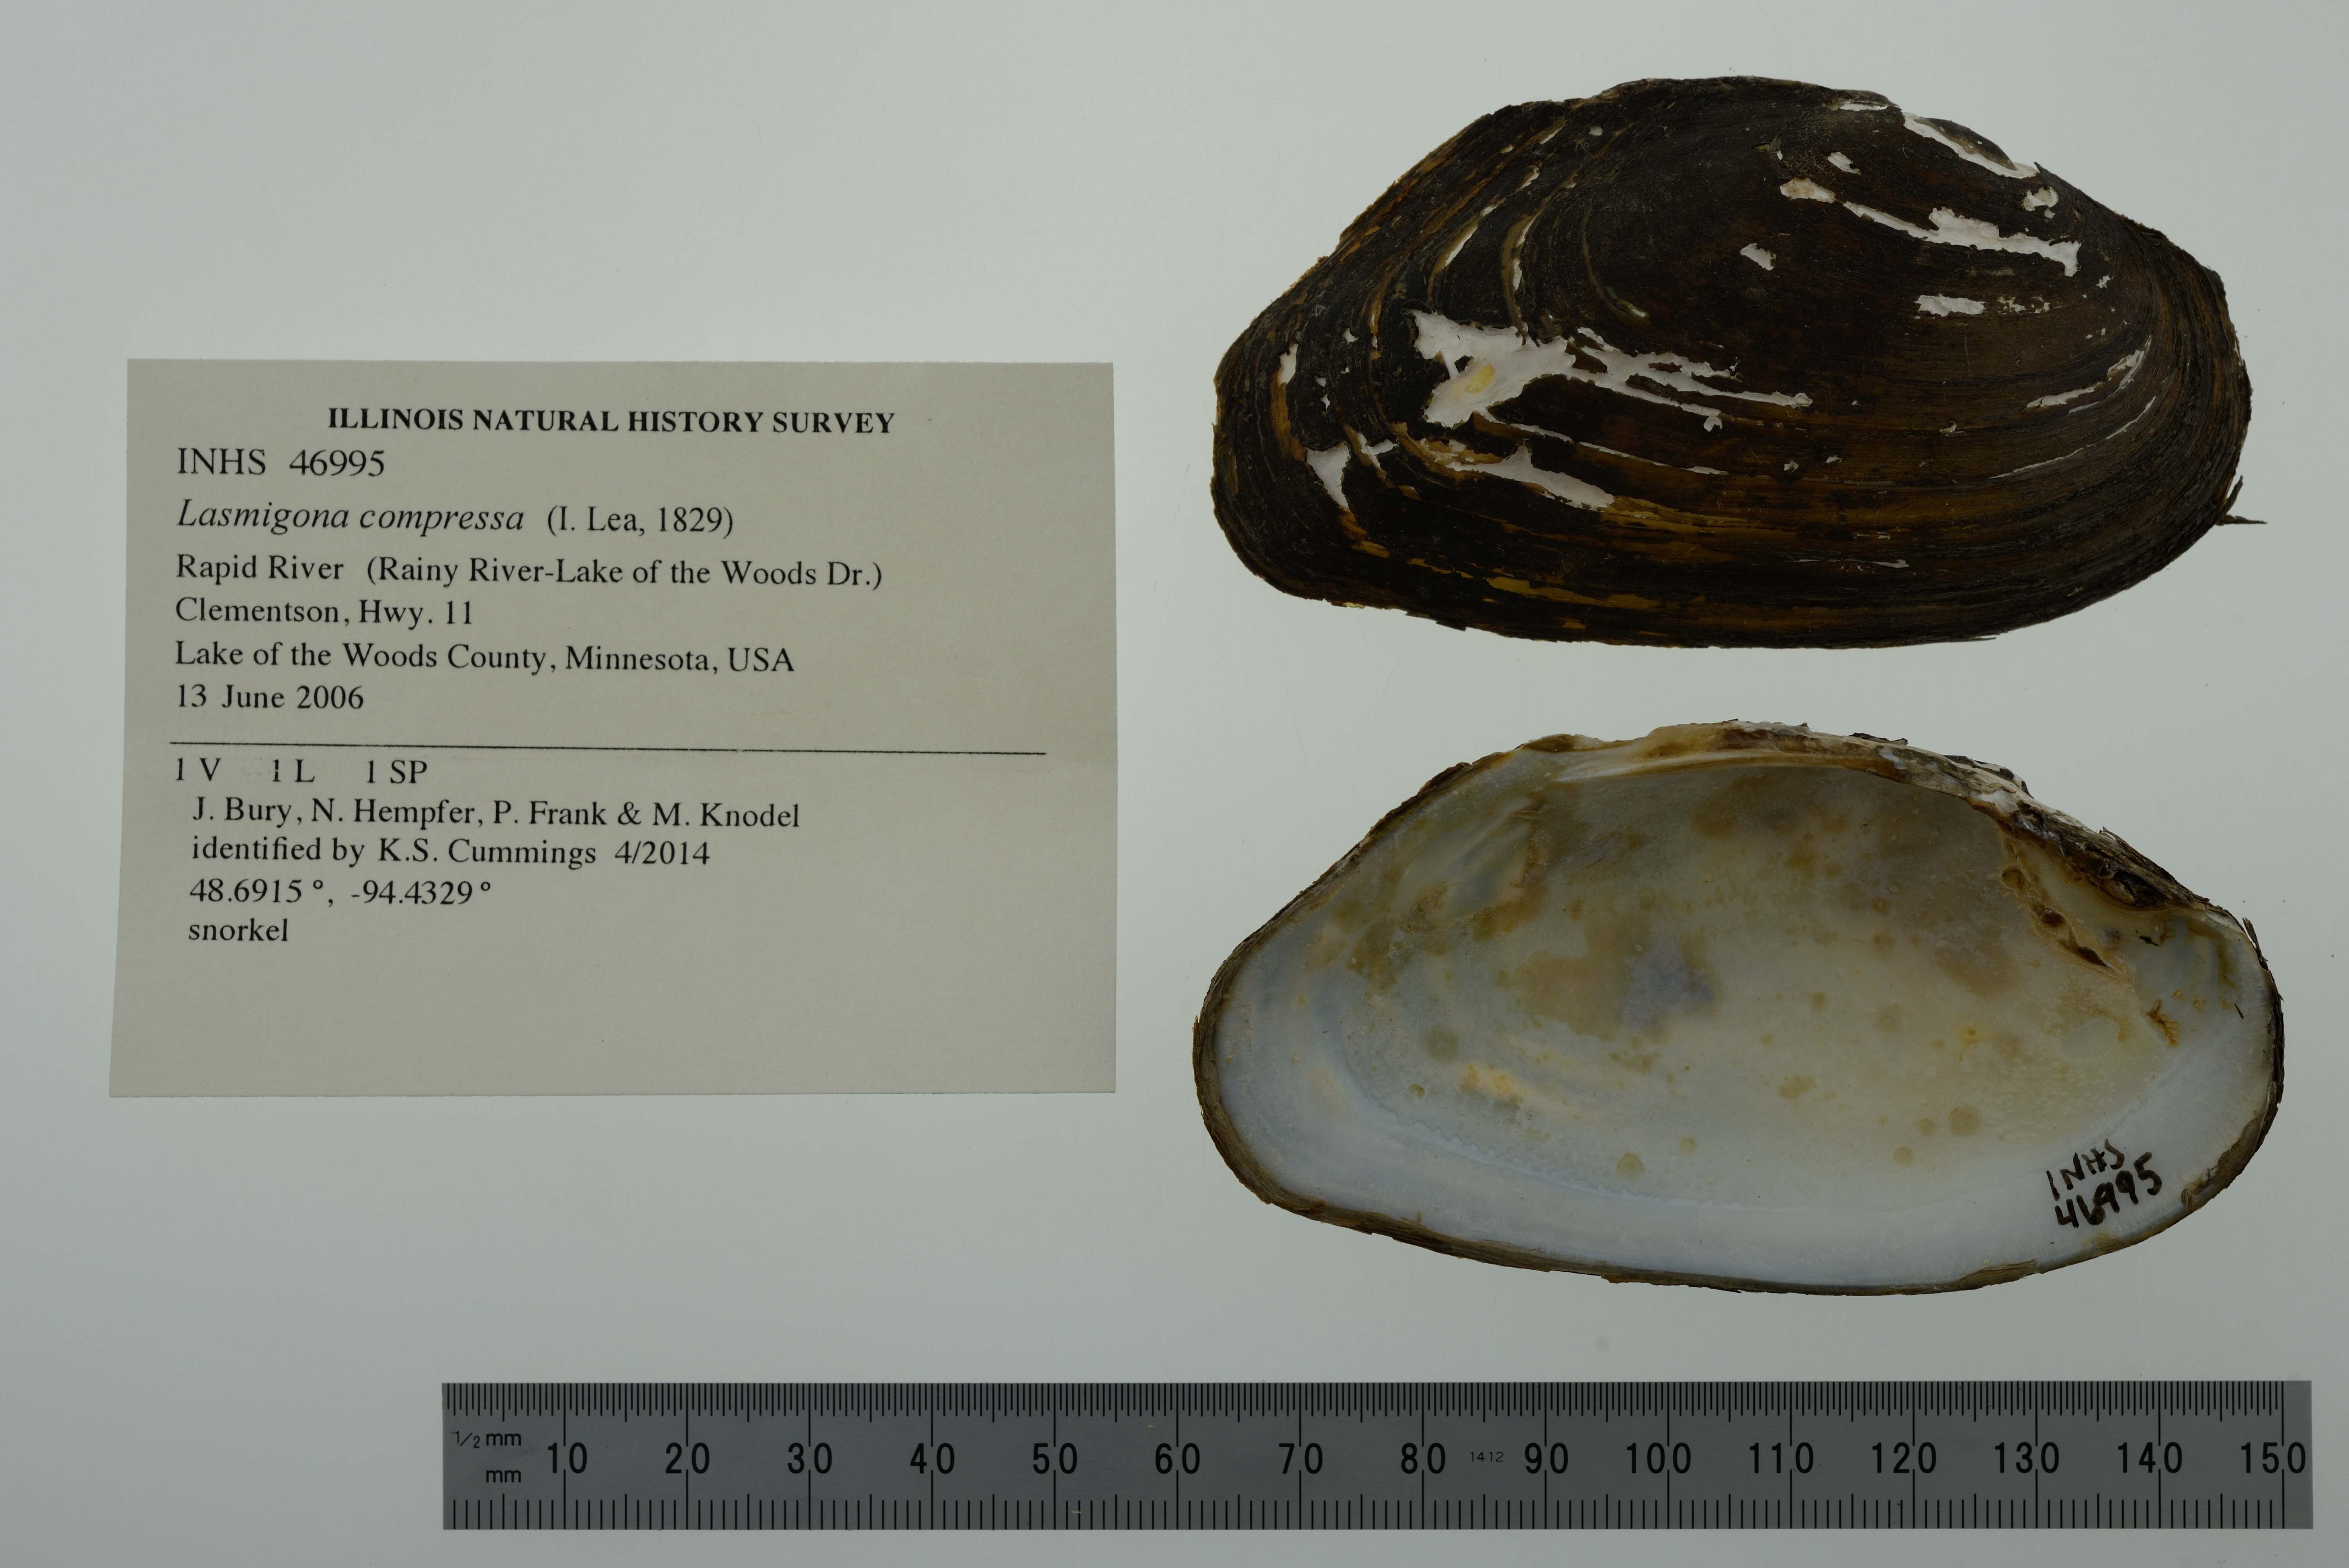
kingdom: Animalia
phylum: Mollusca
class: Bivalvia
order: Unionida
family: Unionidae
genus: Lasmigona
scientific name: Lasmigona compressa
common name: Creek heelsplitter
